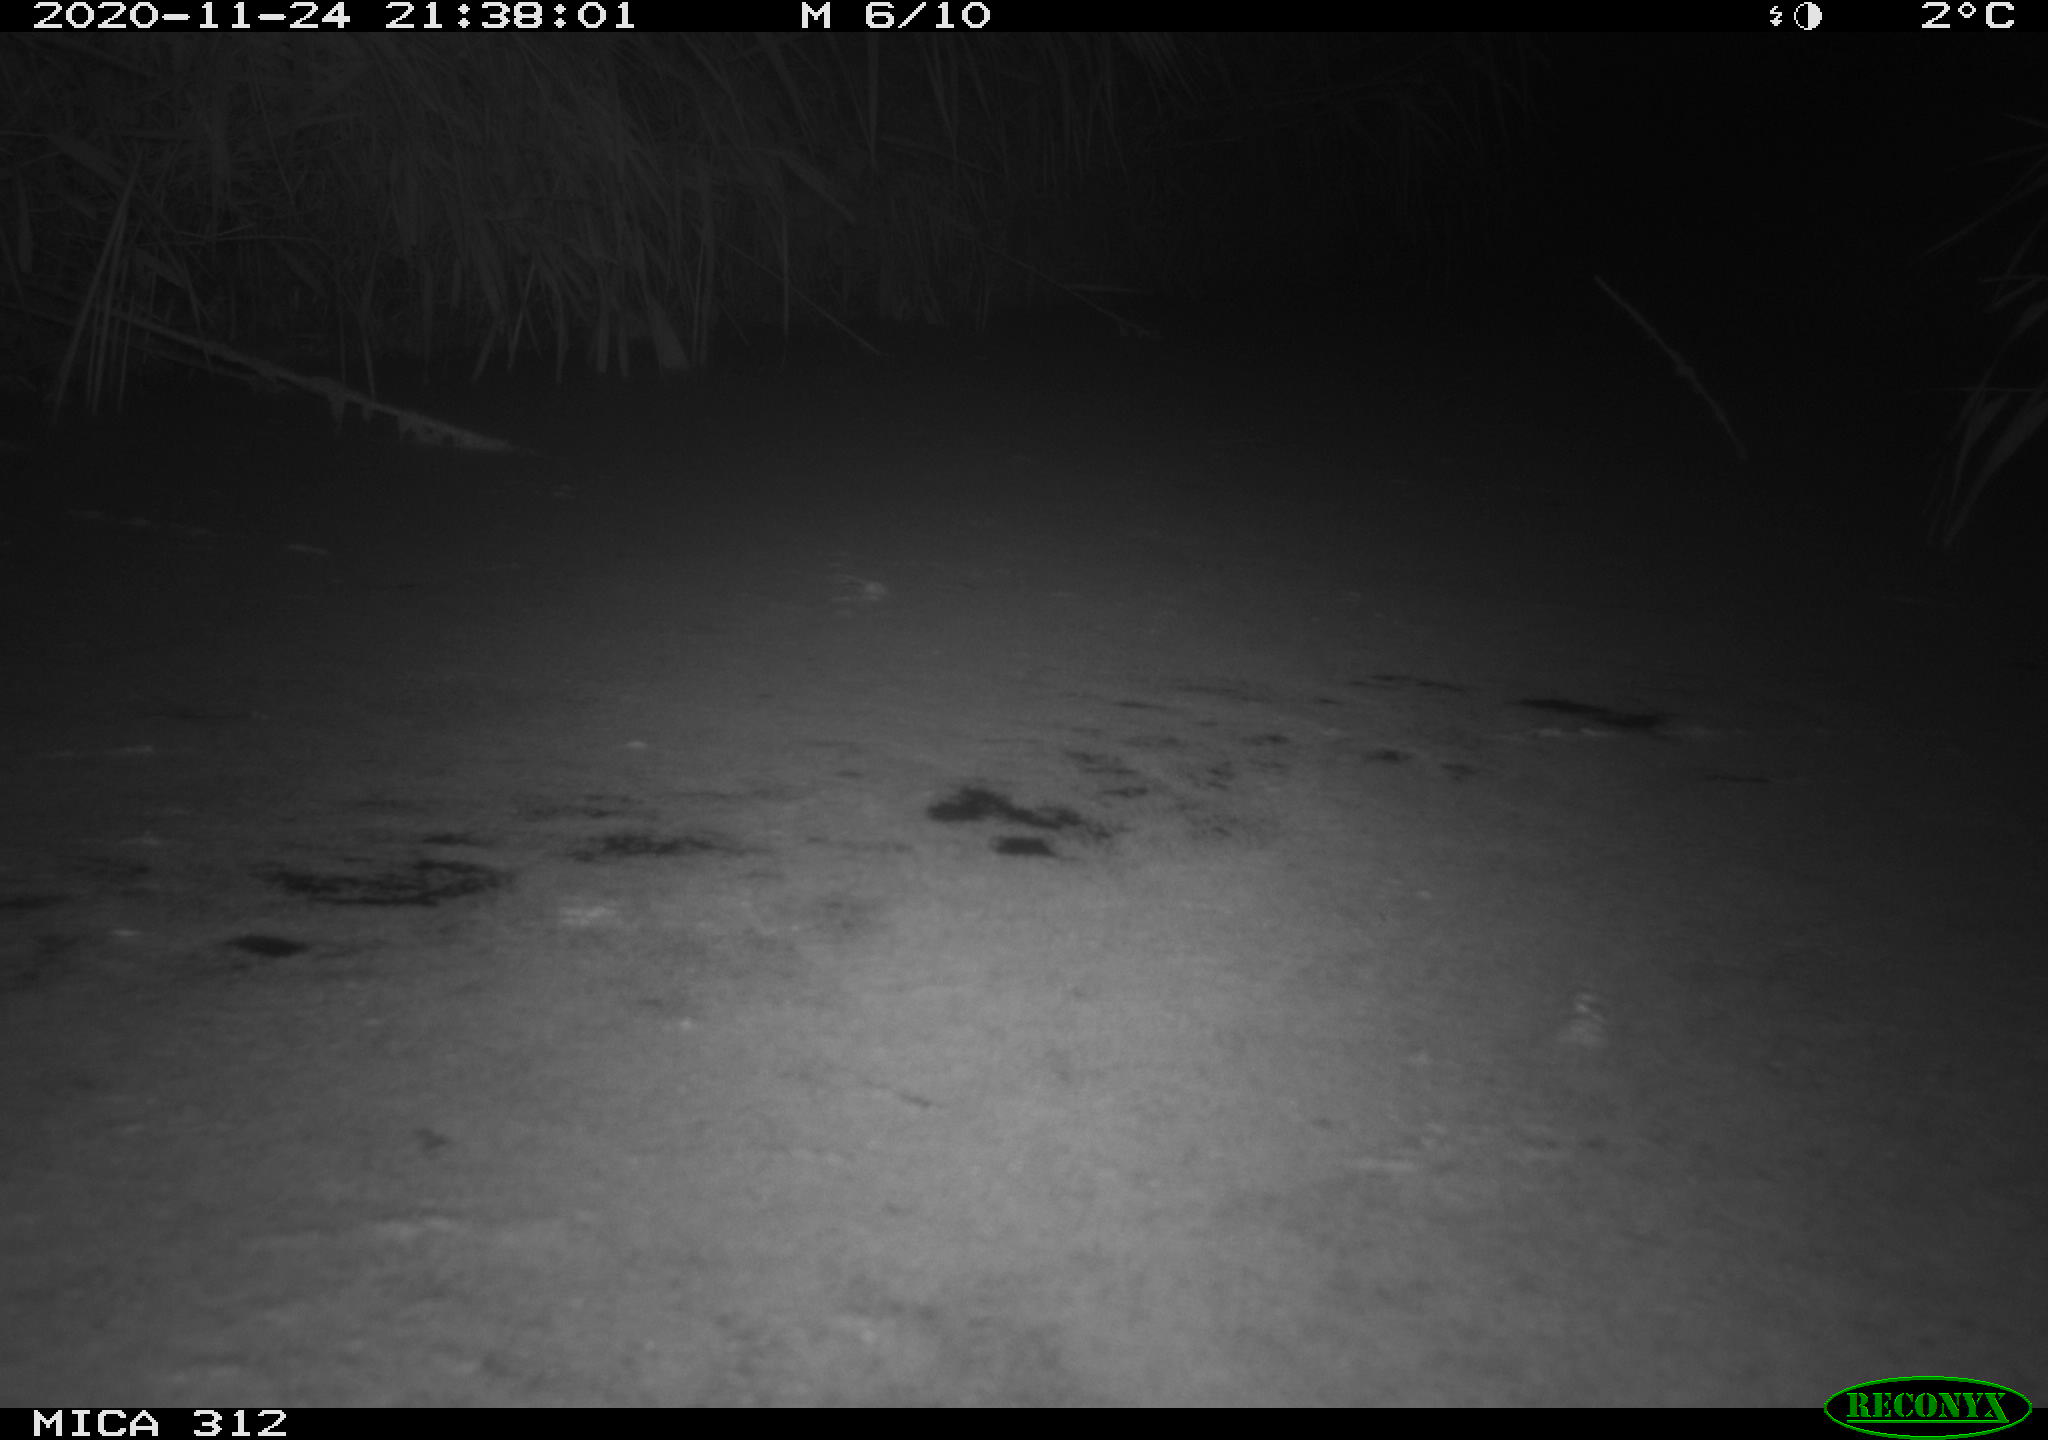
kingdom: Animalia
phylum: Chordata
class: Mammalia
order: Rodentia
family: Muridae
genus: Rattus
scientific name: Rattus norvegicus
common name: Brown rat
